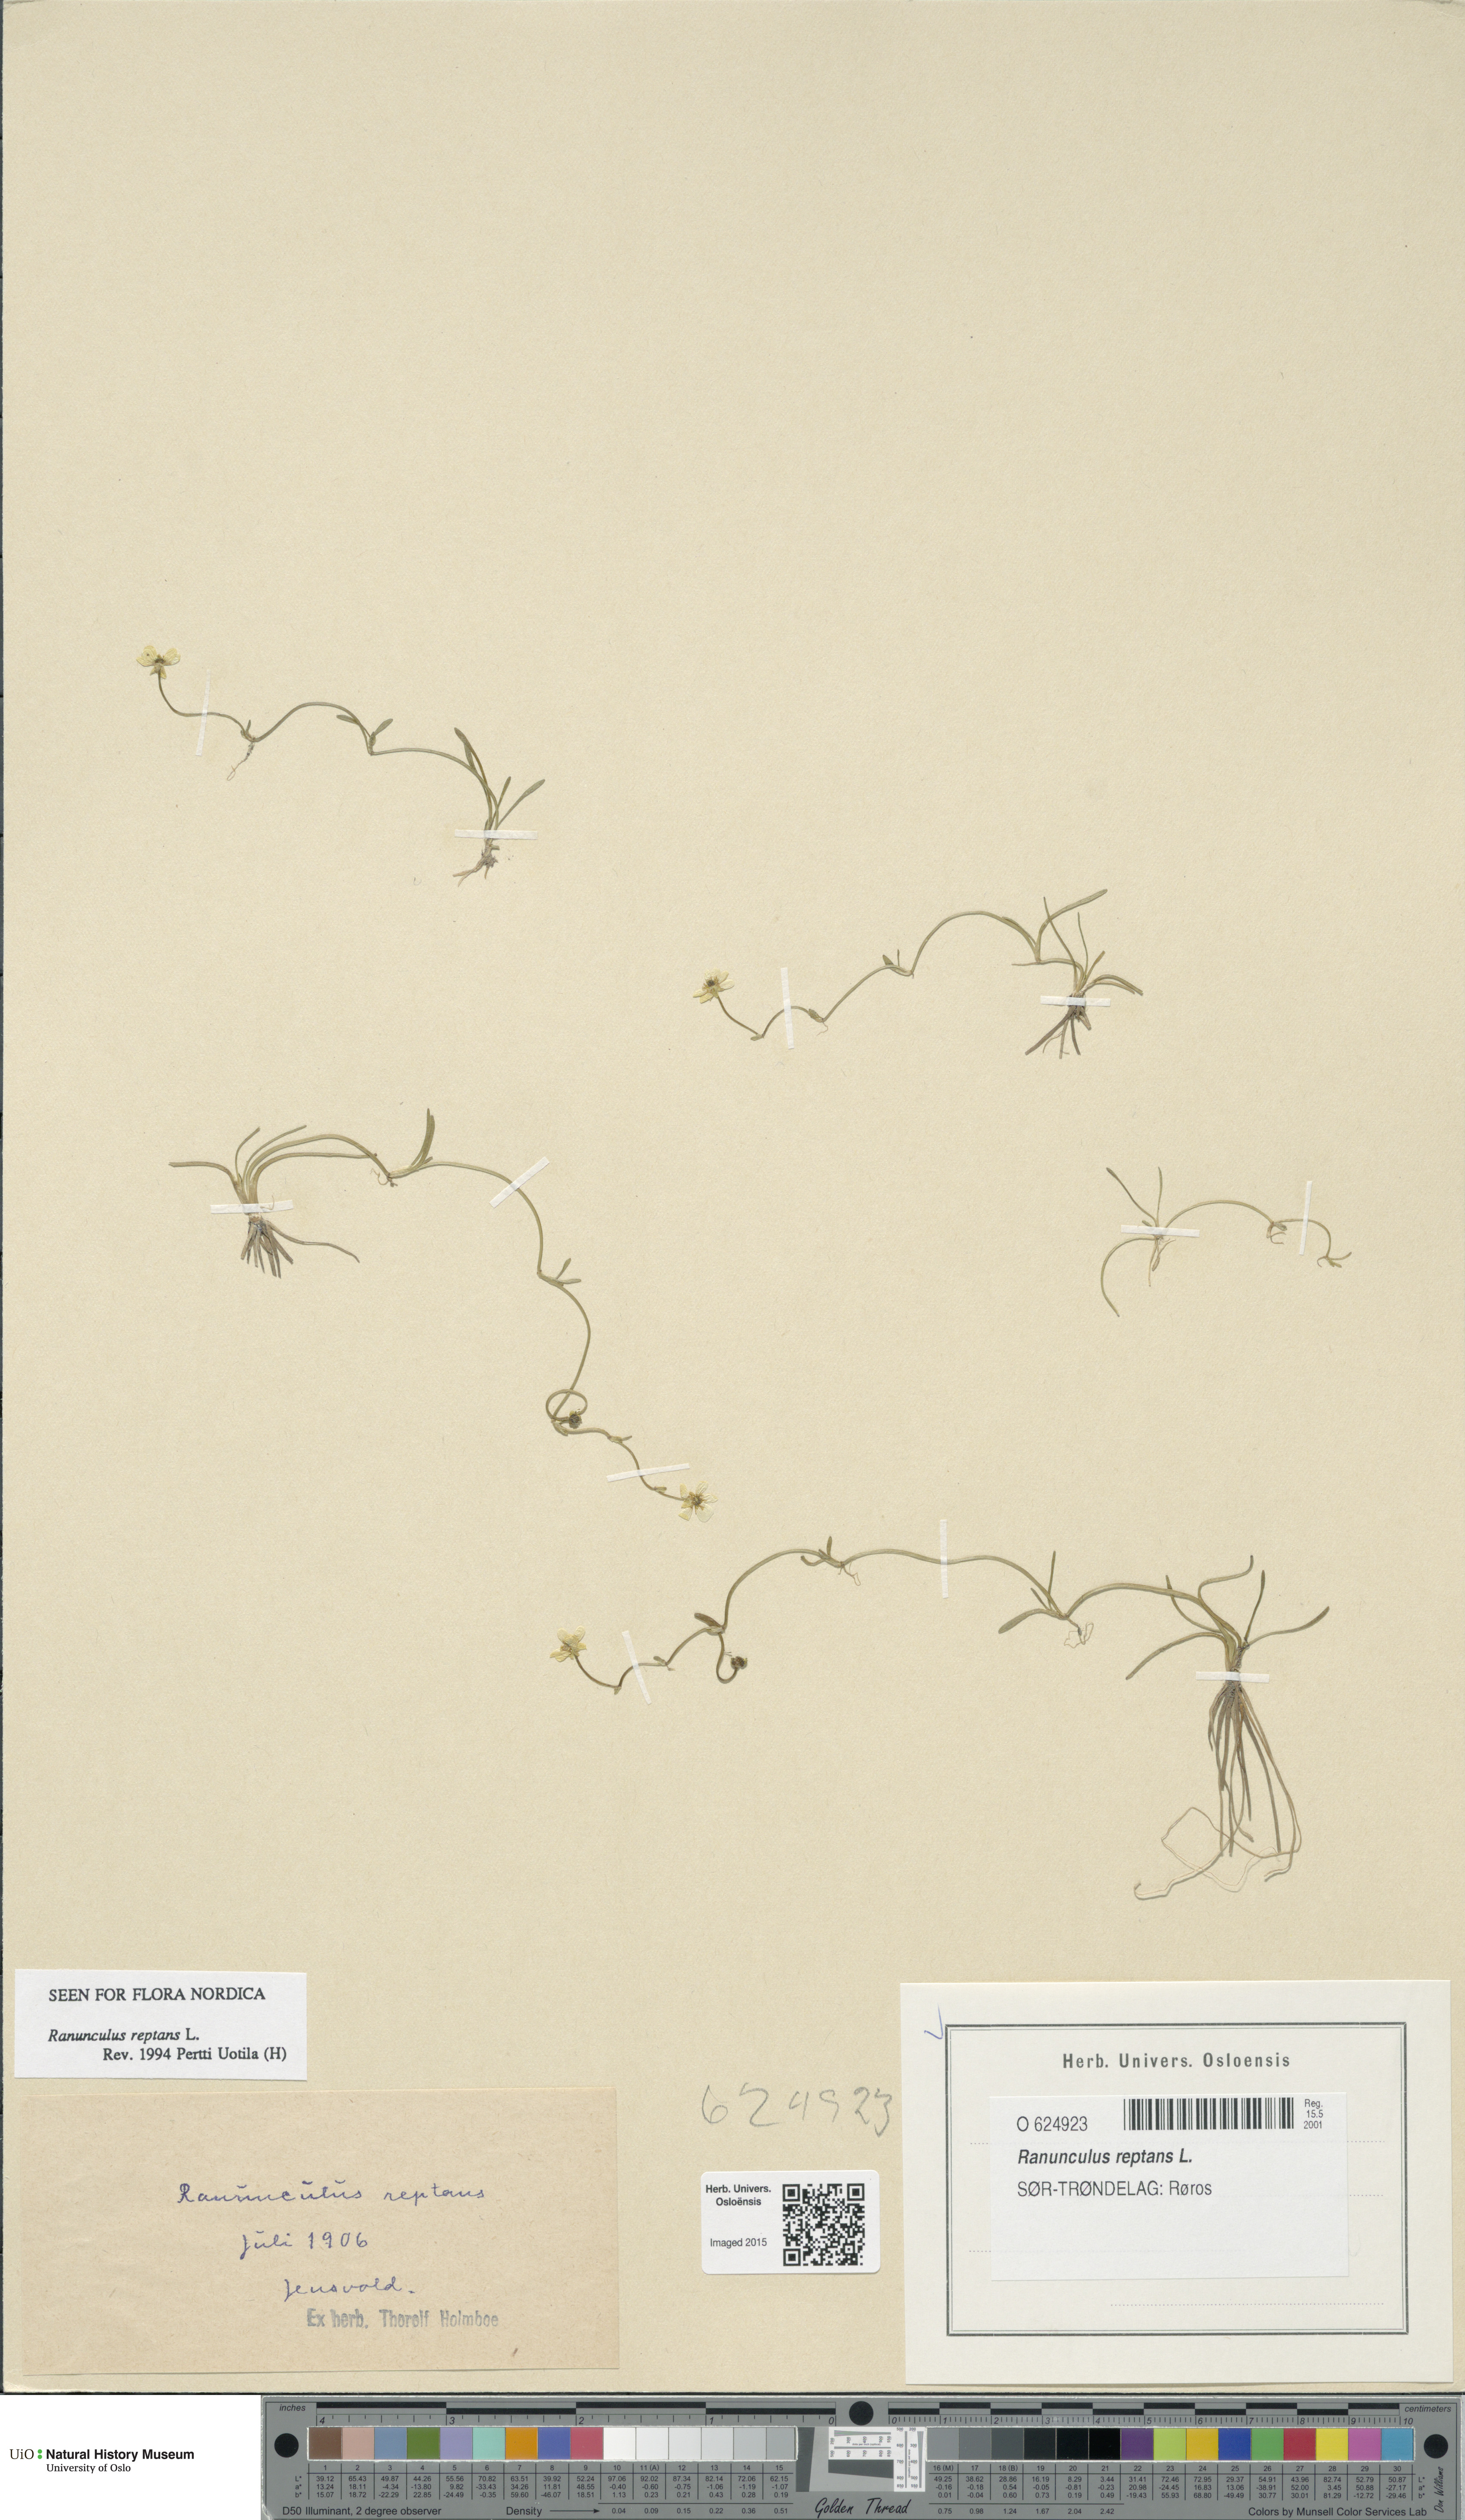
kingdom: Plantae
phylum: Tracheophyta
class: Magnoliopsida
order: Ranunculales
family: Ranunculaceae
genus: Ranunculus
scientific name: Ranunculus reptans
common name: Creeping spearwort
